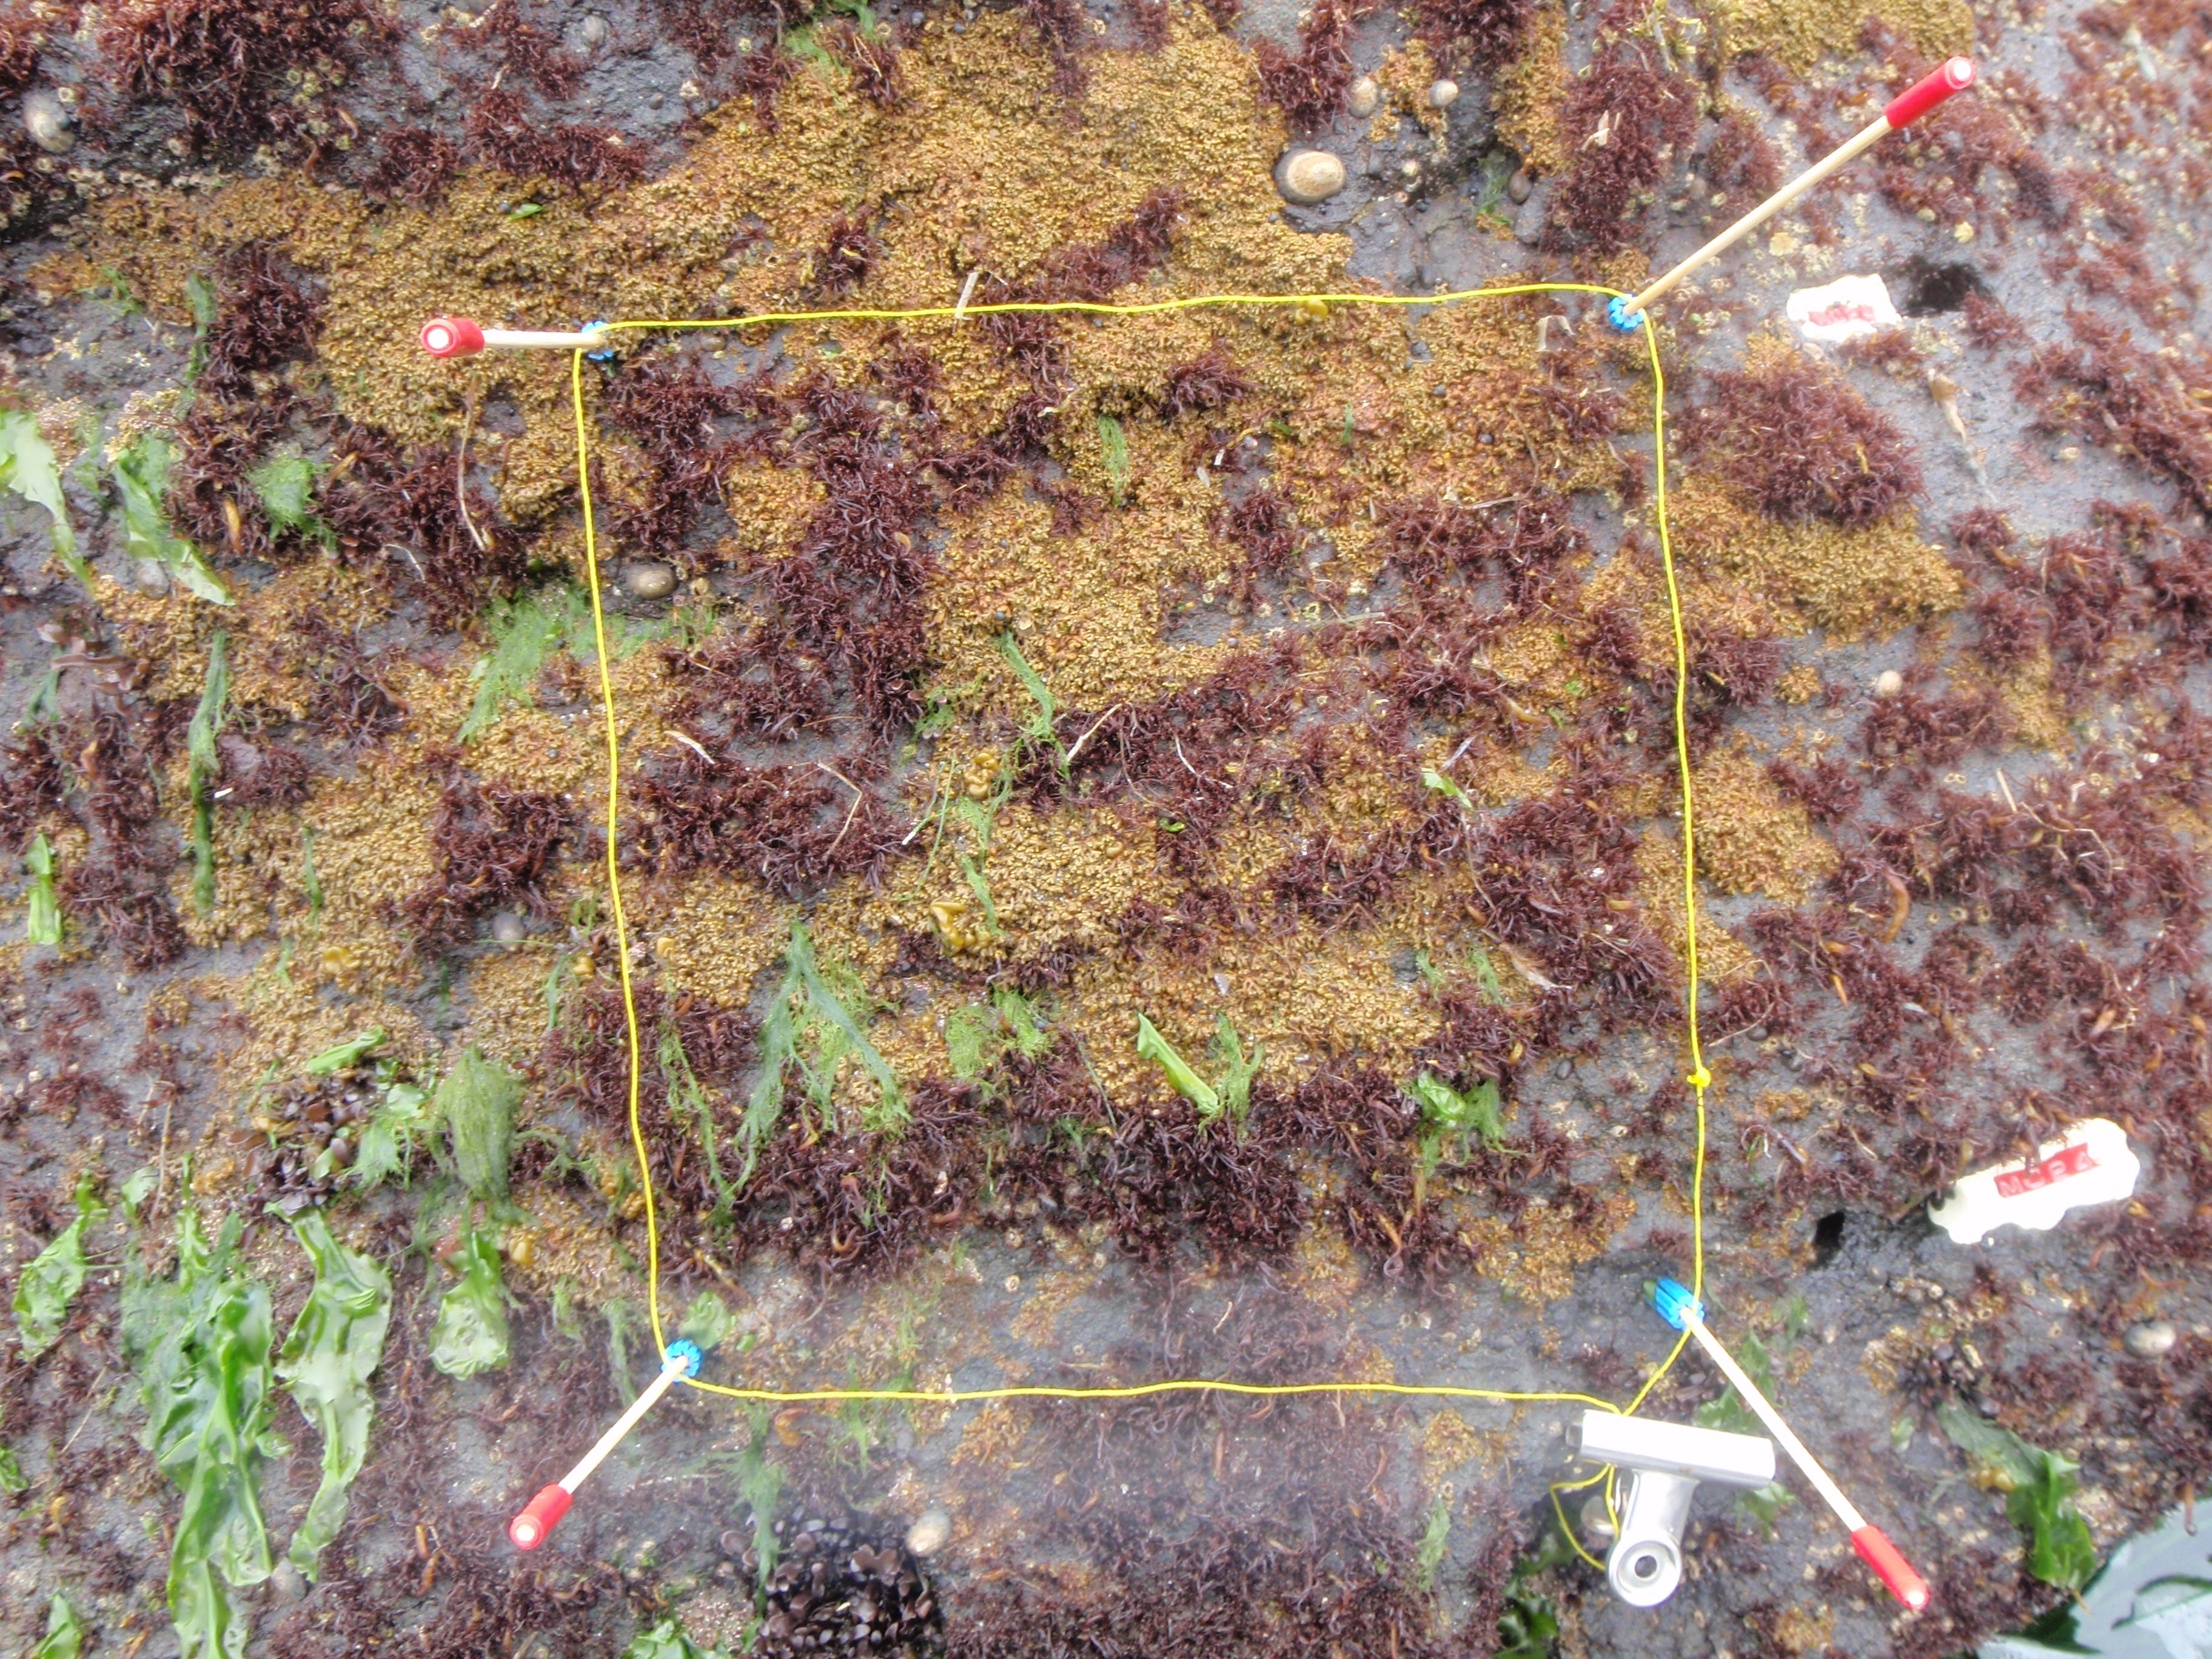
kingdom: Animalia
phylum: Arthropoda
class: Maxillopoda
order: Sessilia
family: Chthamalidae
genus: Chthamalus
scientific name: Chthamalus dalli
